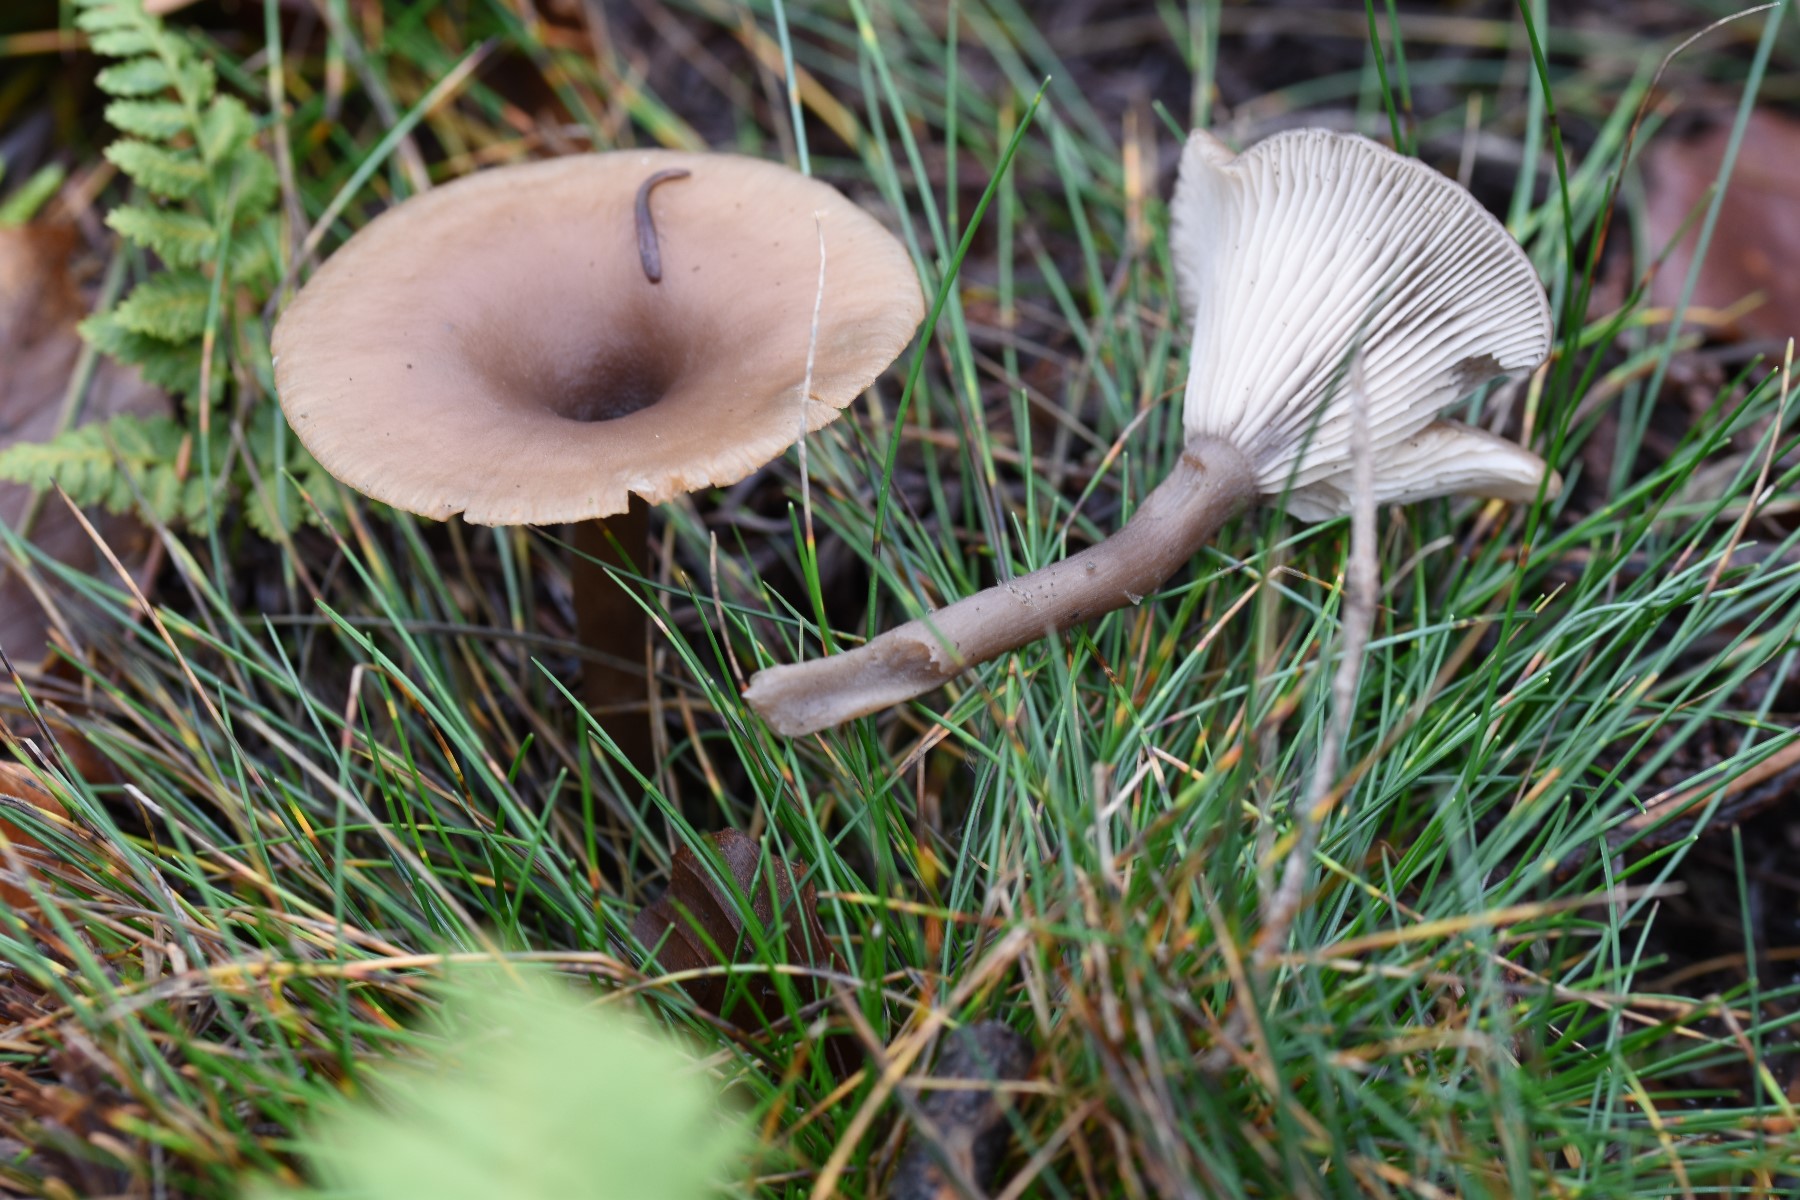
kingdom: Fungi
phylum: Basidiomycota
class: Agaricomycetes
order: Agaricales
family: Pseudoclitocybaceae
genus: Pseudoclitocybe
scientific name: Pseudoclitocybe cyathiformis
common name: almindelig bægertragthat
